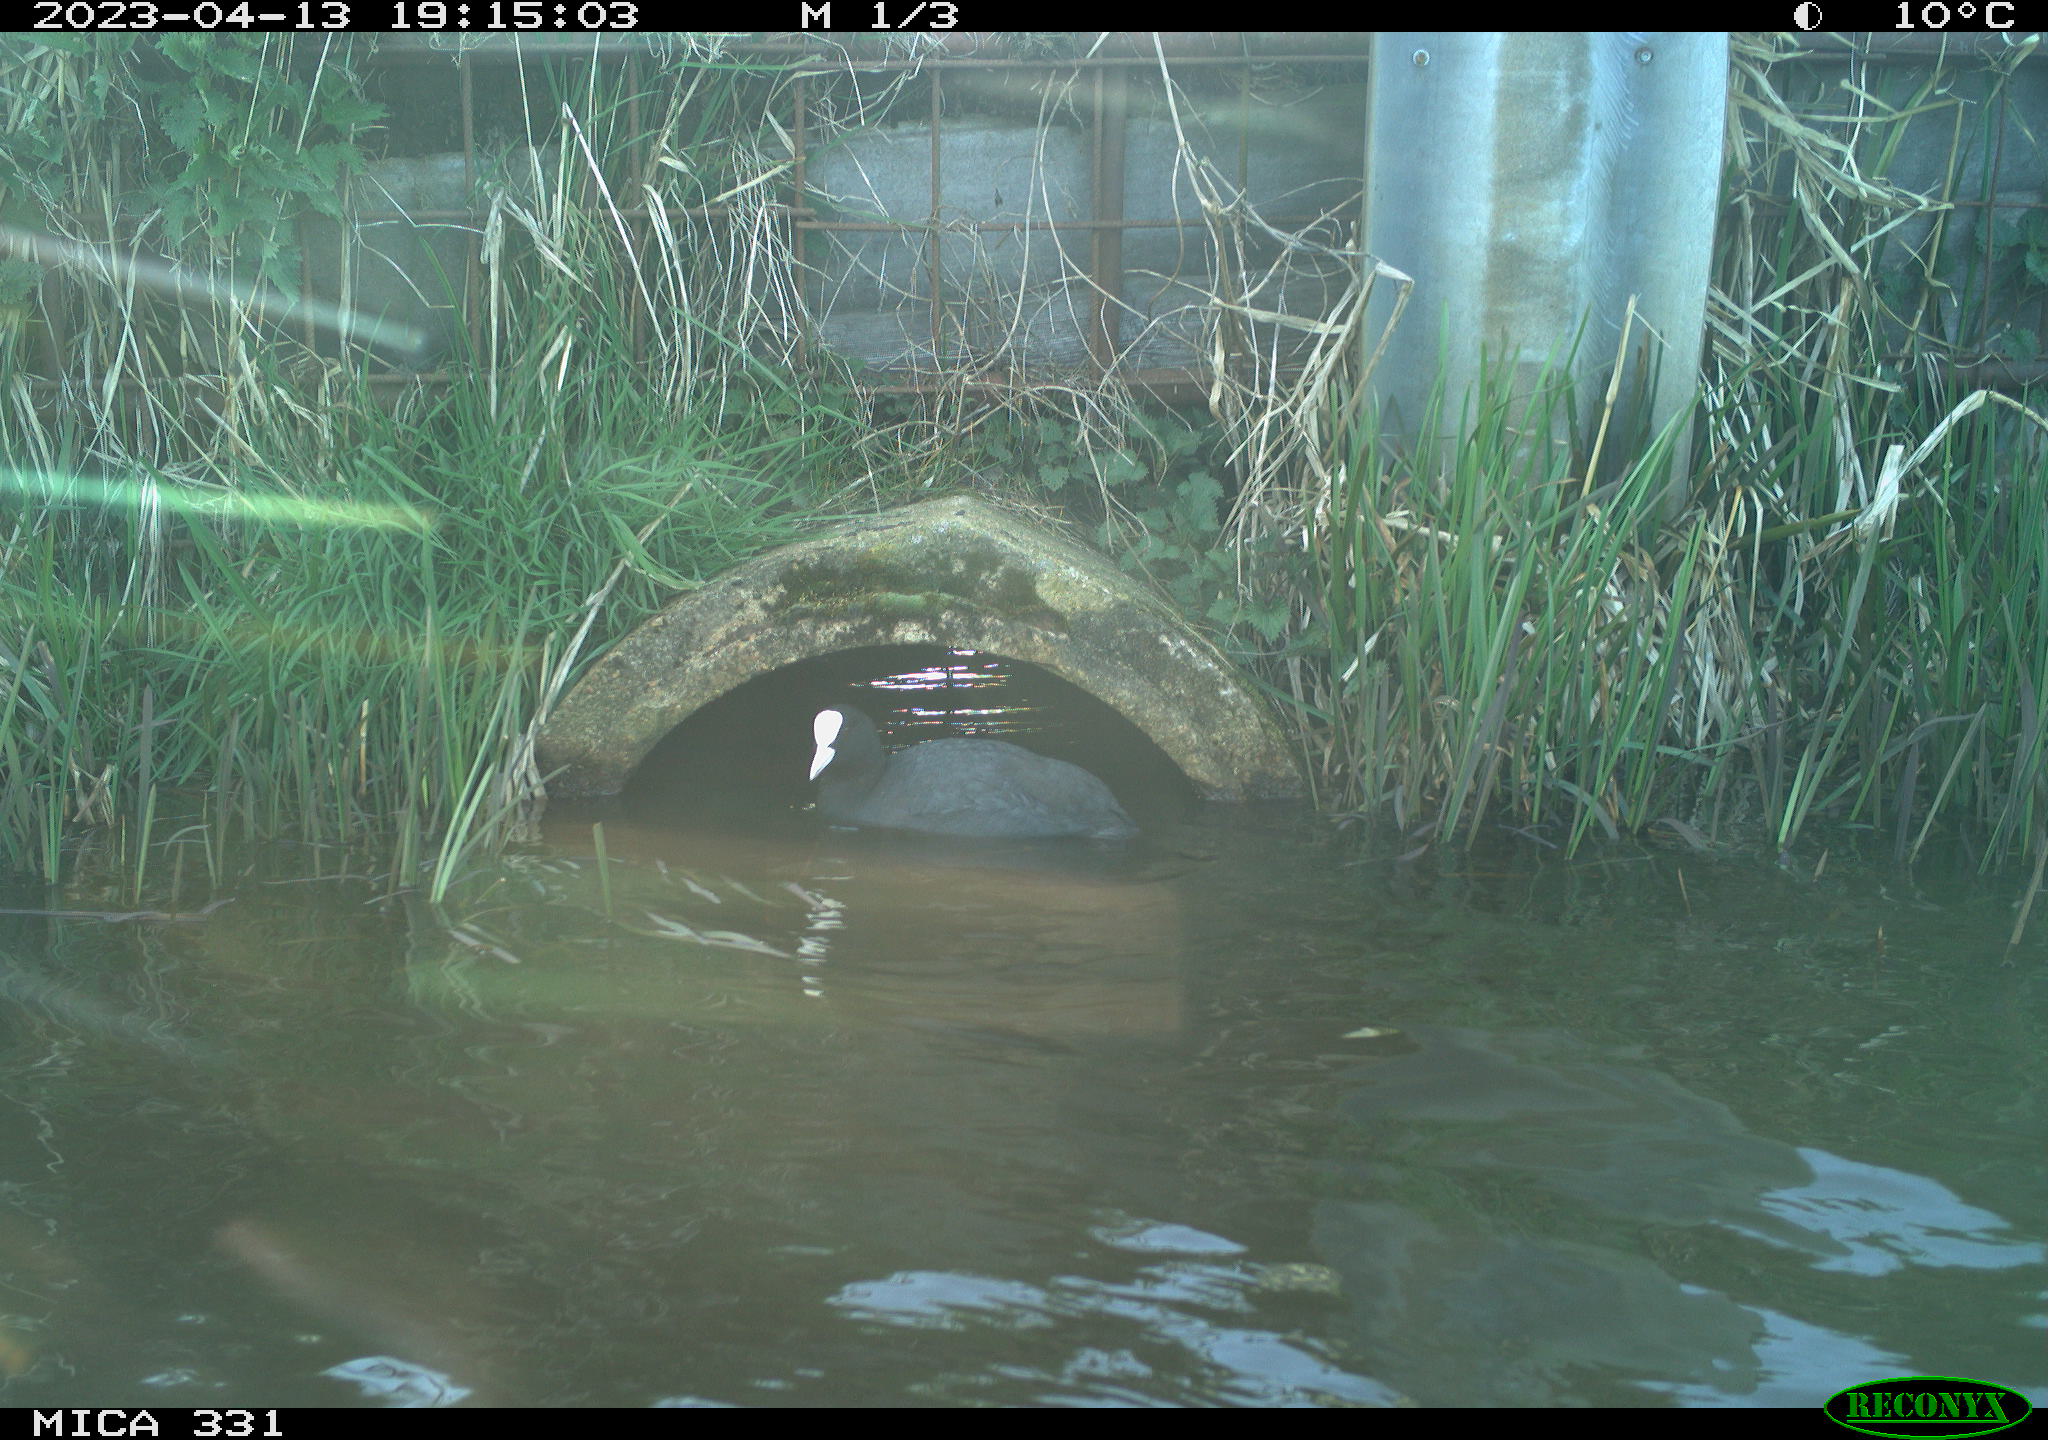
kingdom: Animalia
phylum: Chordata
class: Aves
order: Gruiformes
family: Rallidae
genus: Fulica
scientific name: Fulica atra
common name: Eurasian coot
